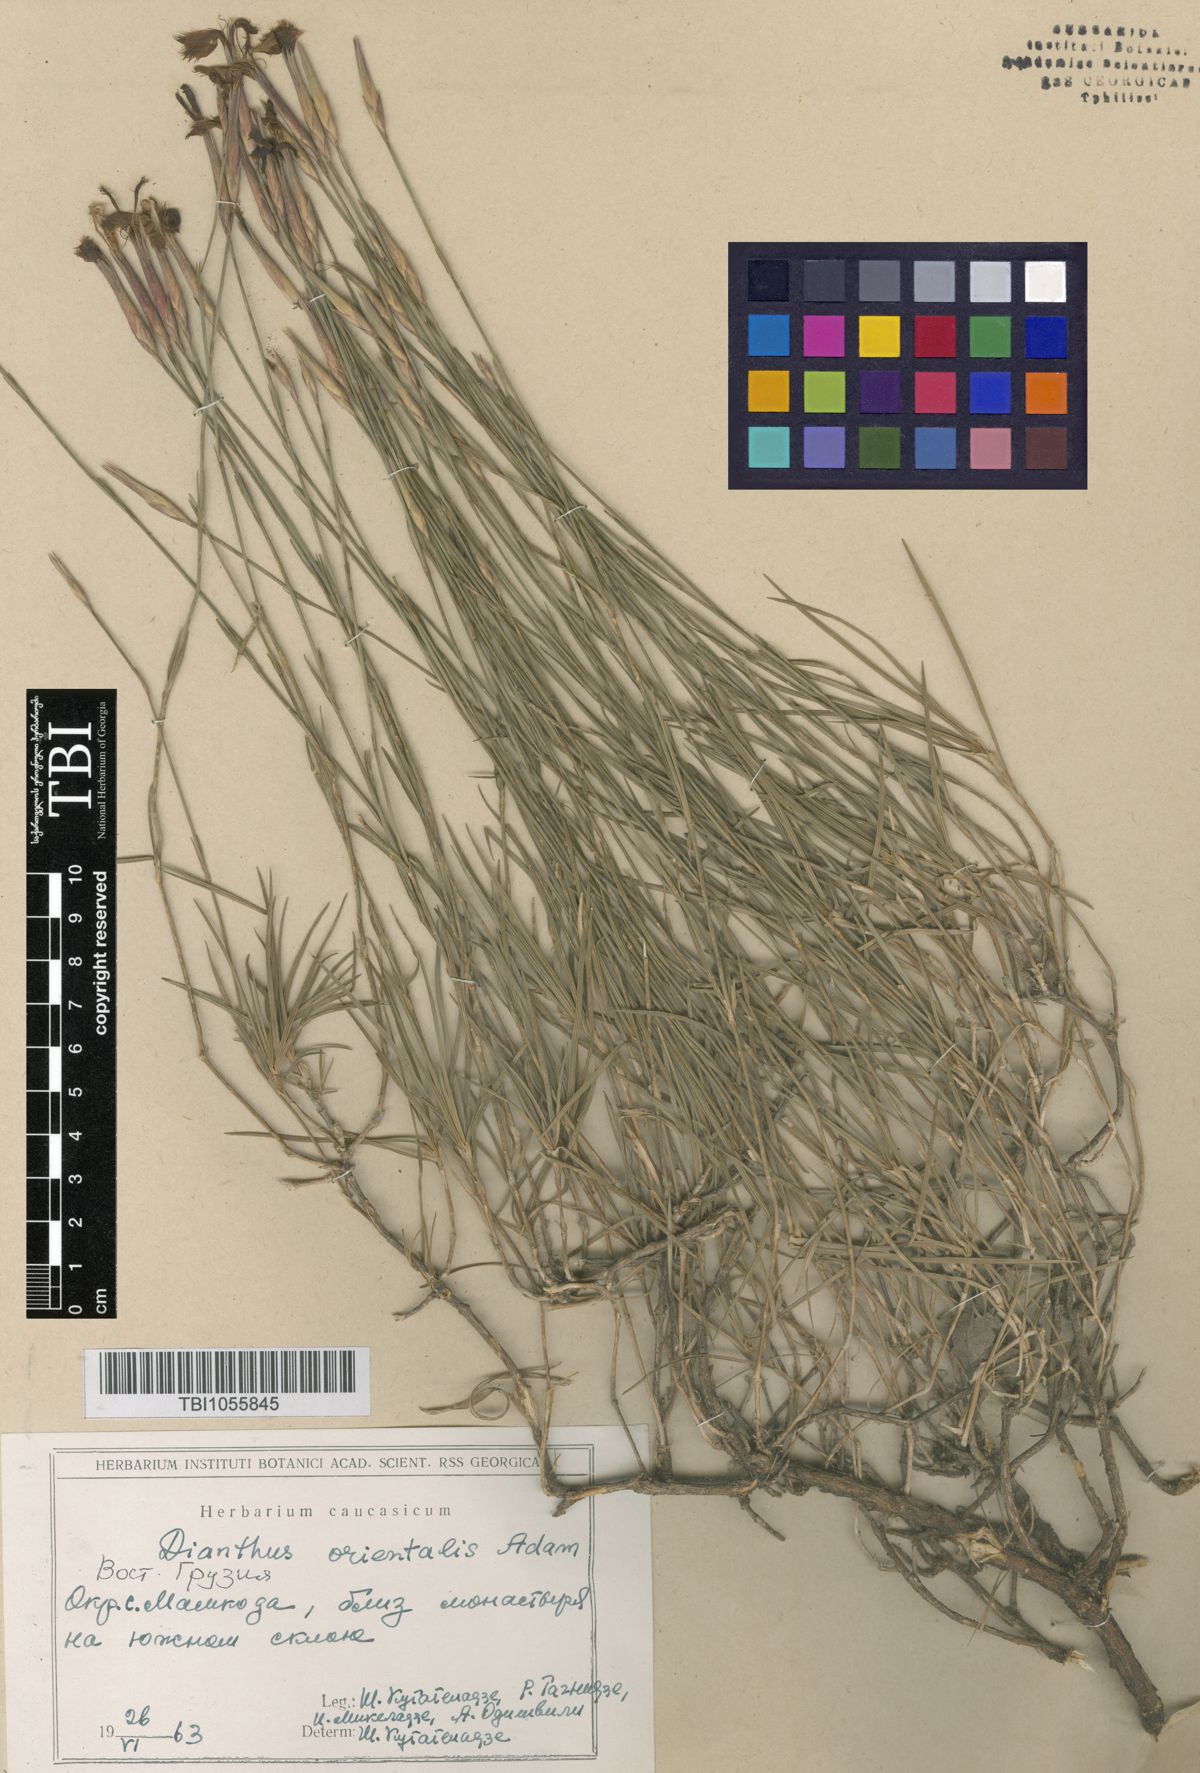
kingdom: Plantae
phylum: Tracheophyta
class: Magnoliopsida
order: Caryophyllales
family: Caryophyllaceae
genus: Dianthus
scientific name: Dianthus orientalis
